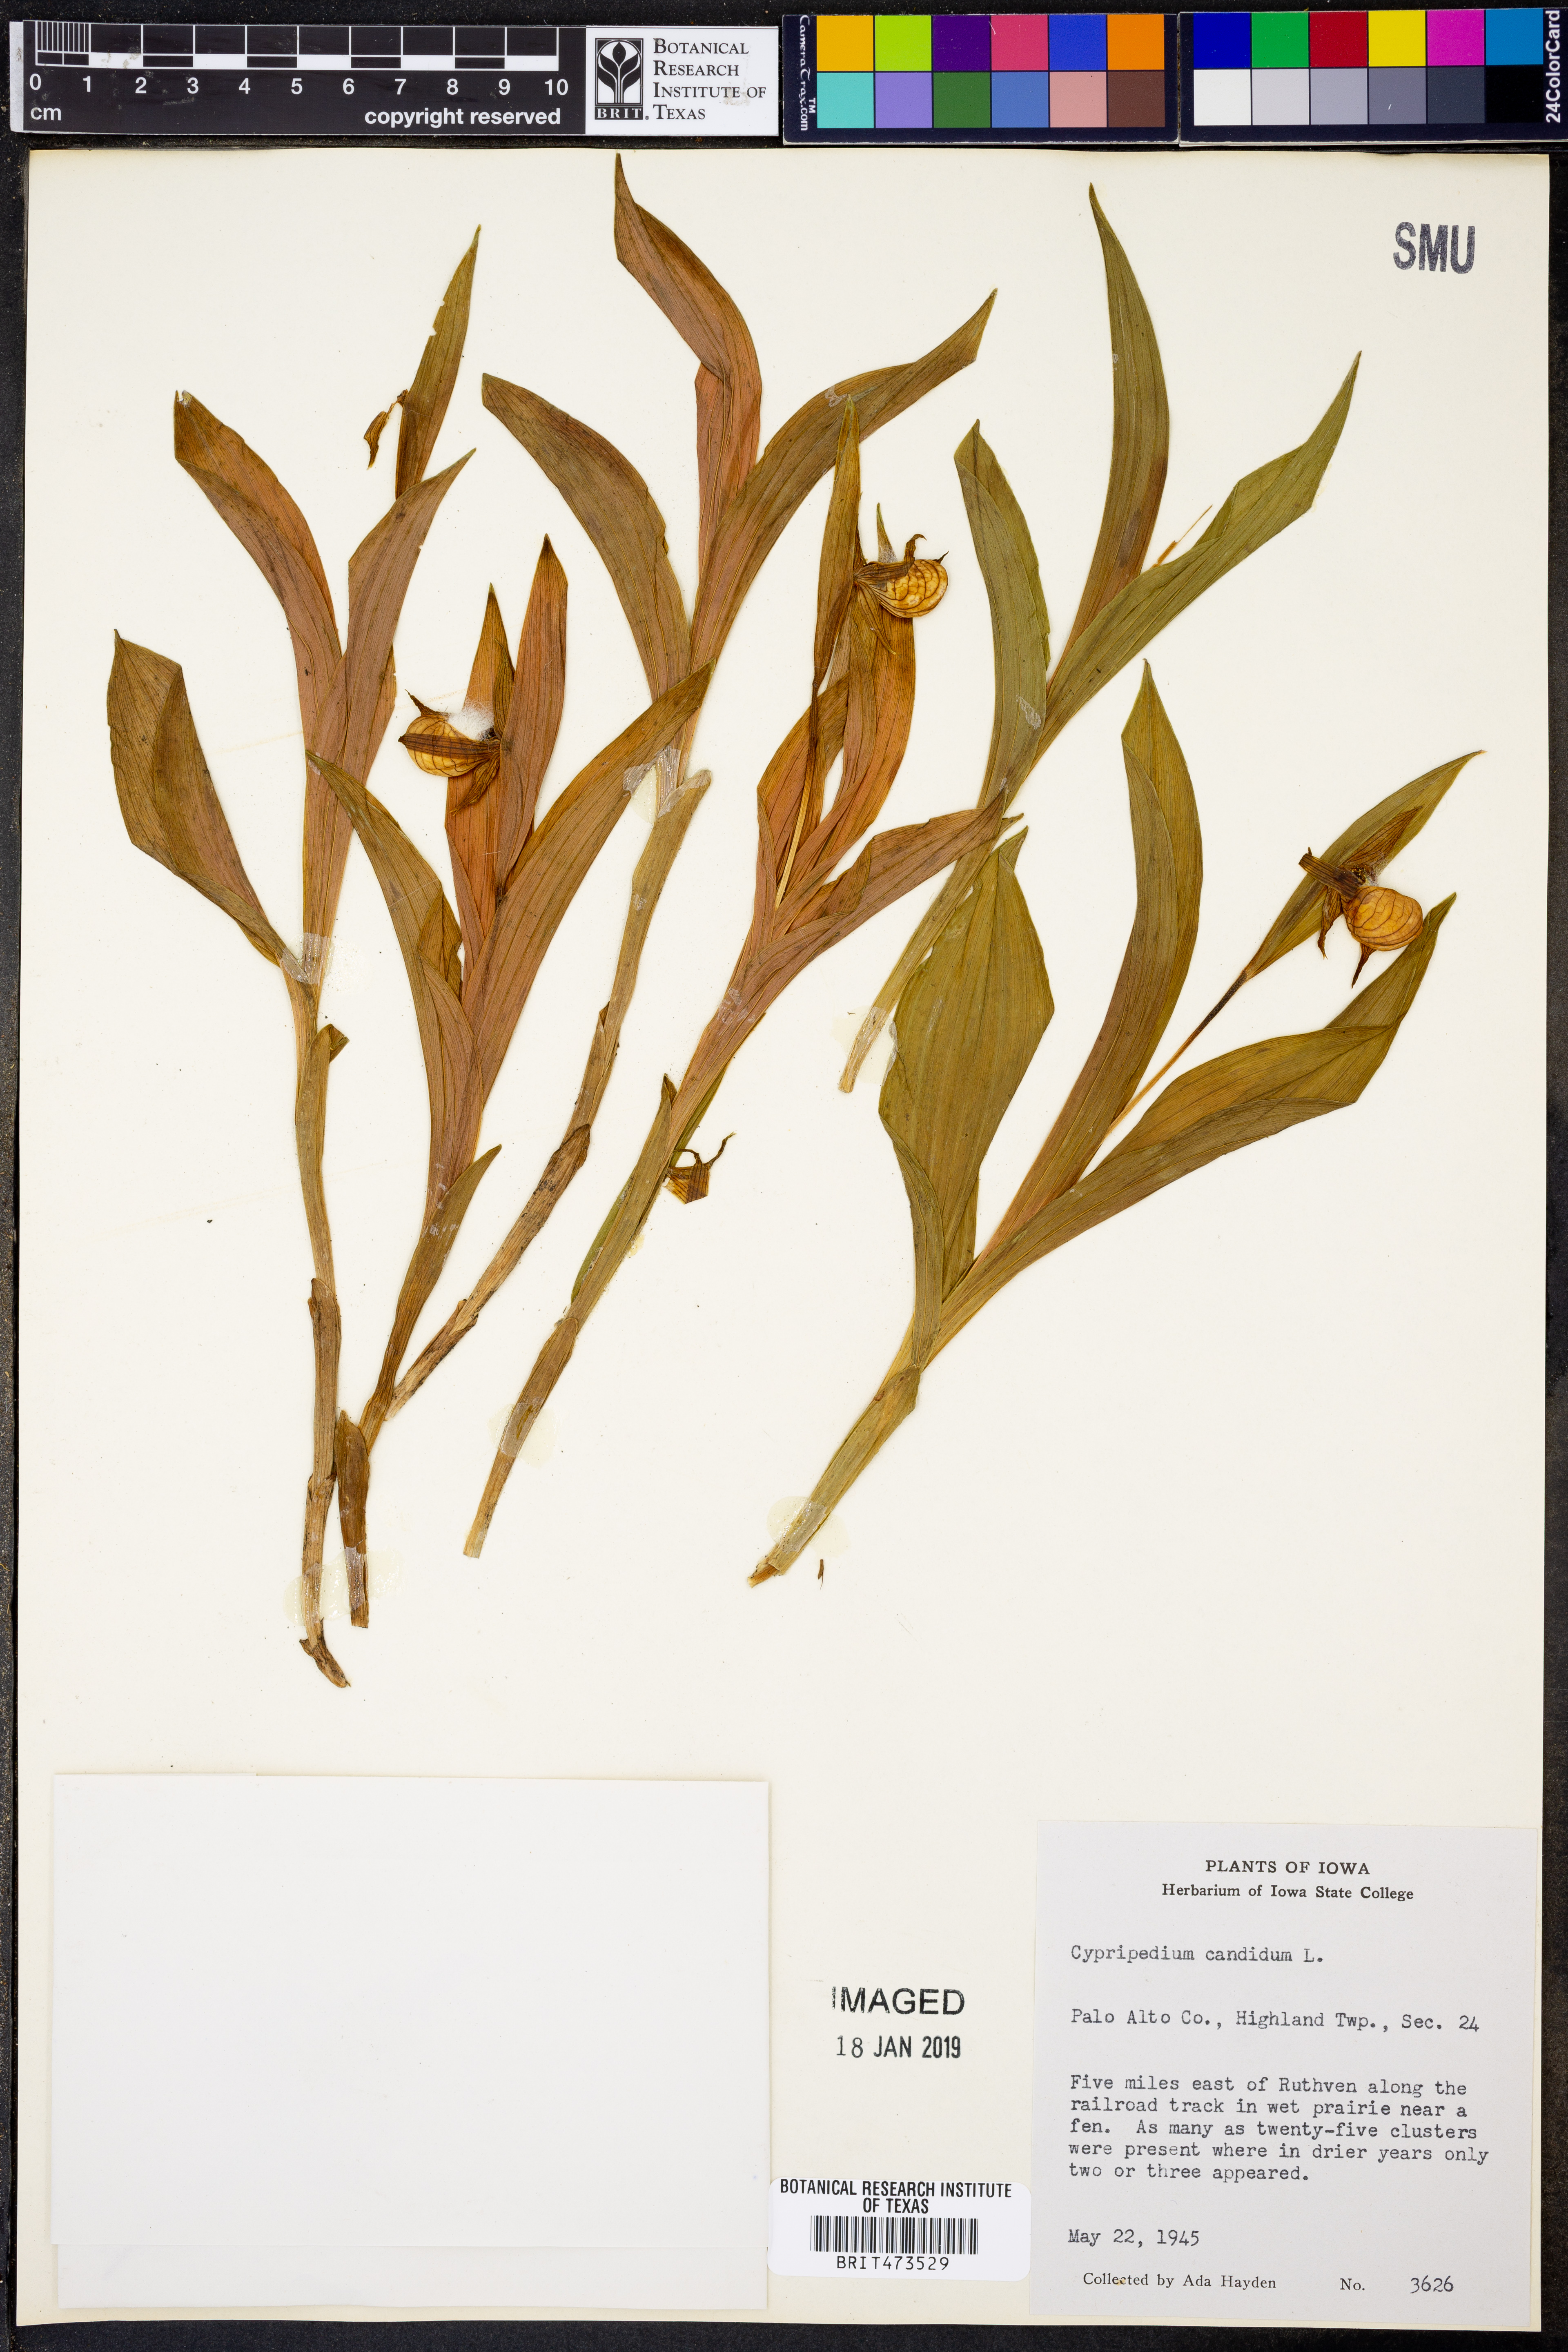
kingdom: Plantae
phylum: Tracheophyta
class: Liliopsida
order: Asparagales
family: Orchidaceae
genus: Cypripedium
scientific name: Cypripedium candidum
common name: White lady's-slipper
